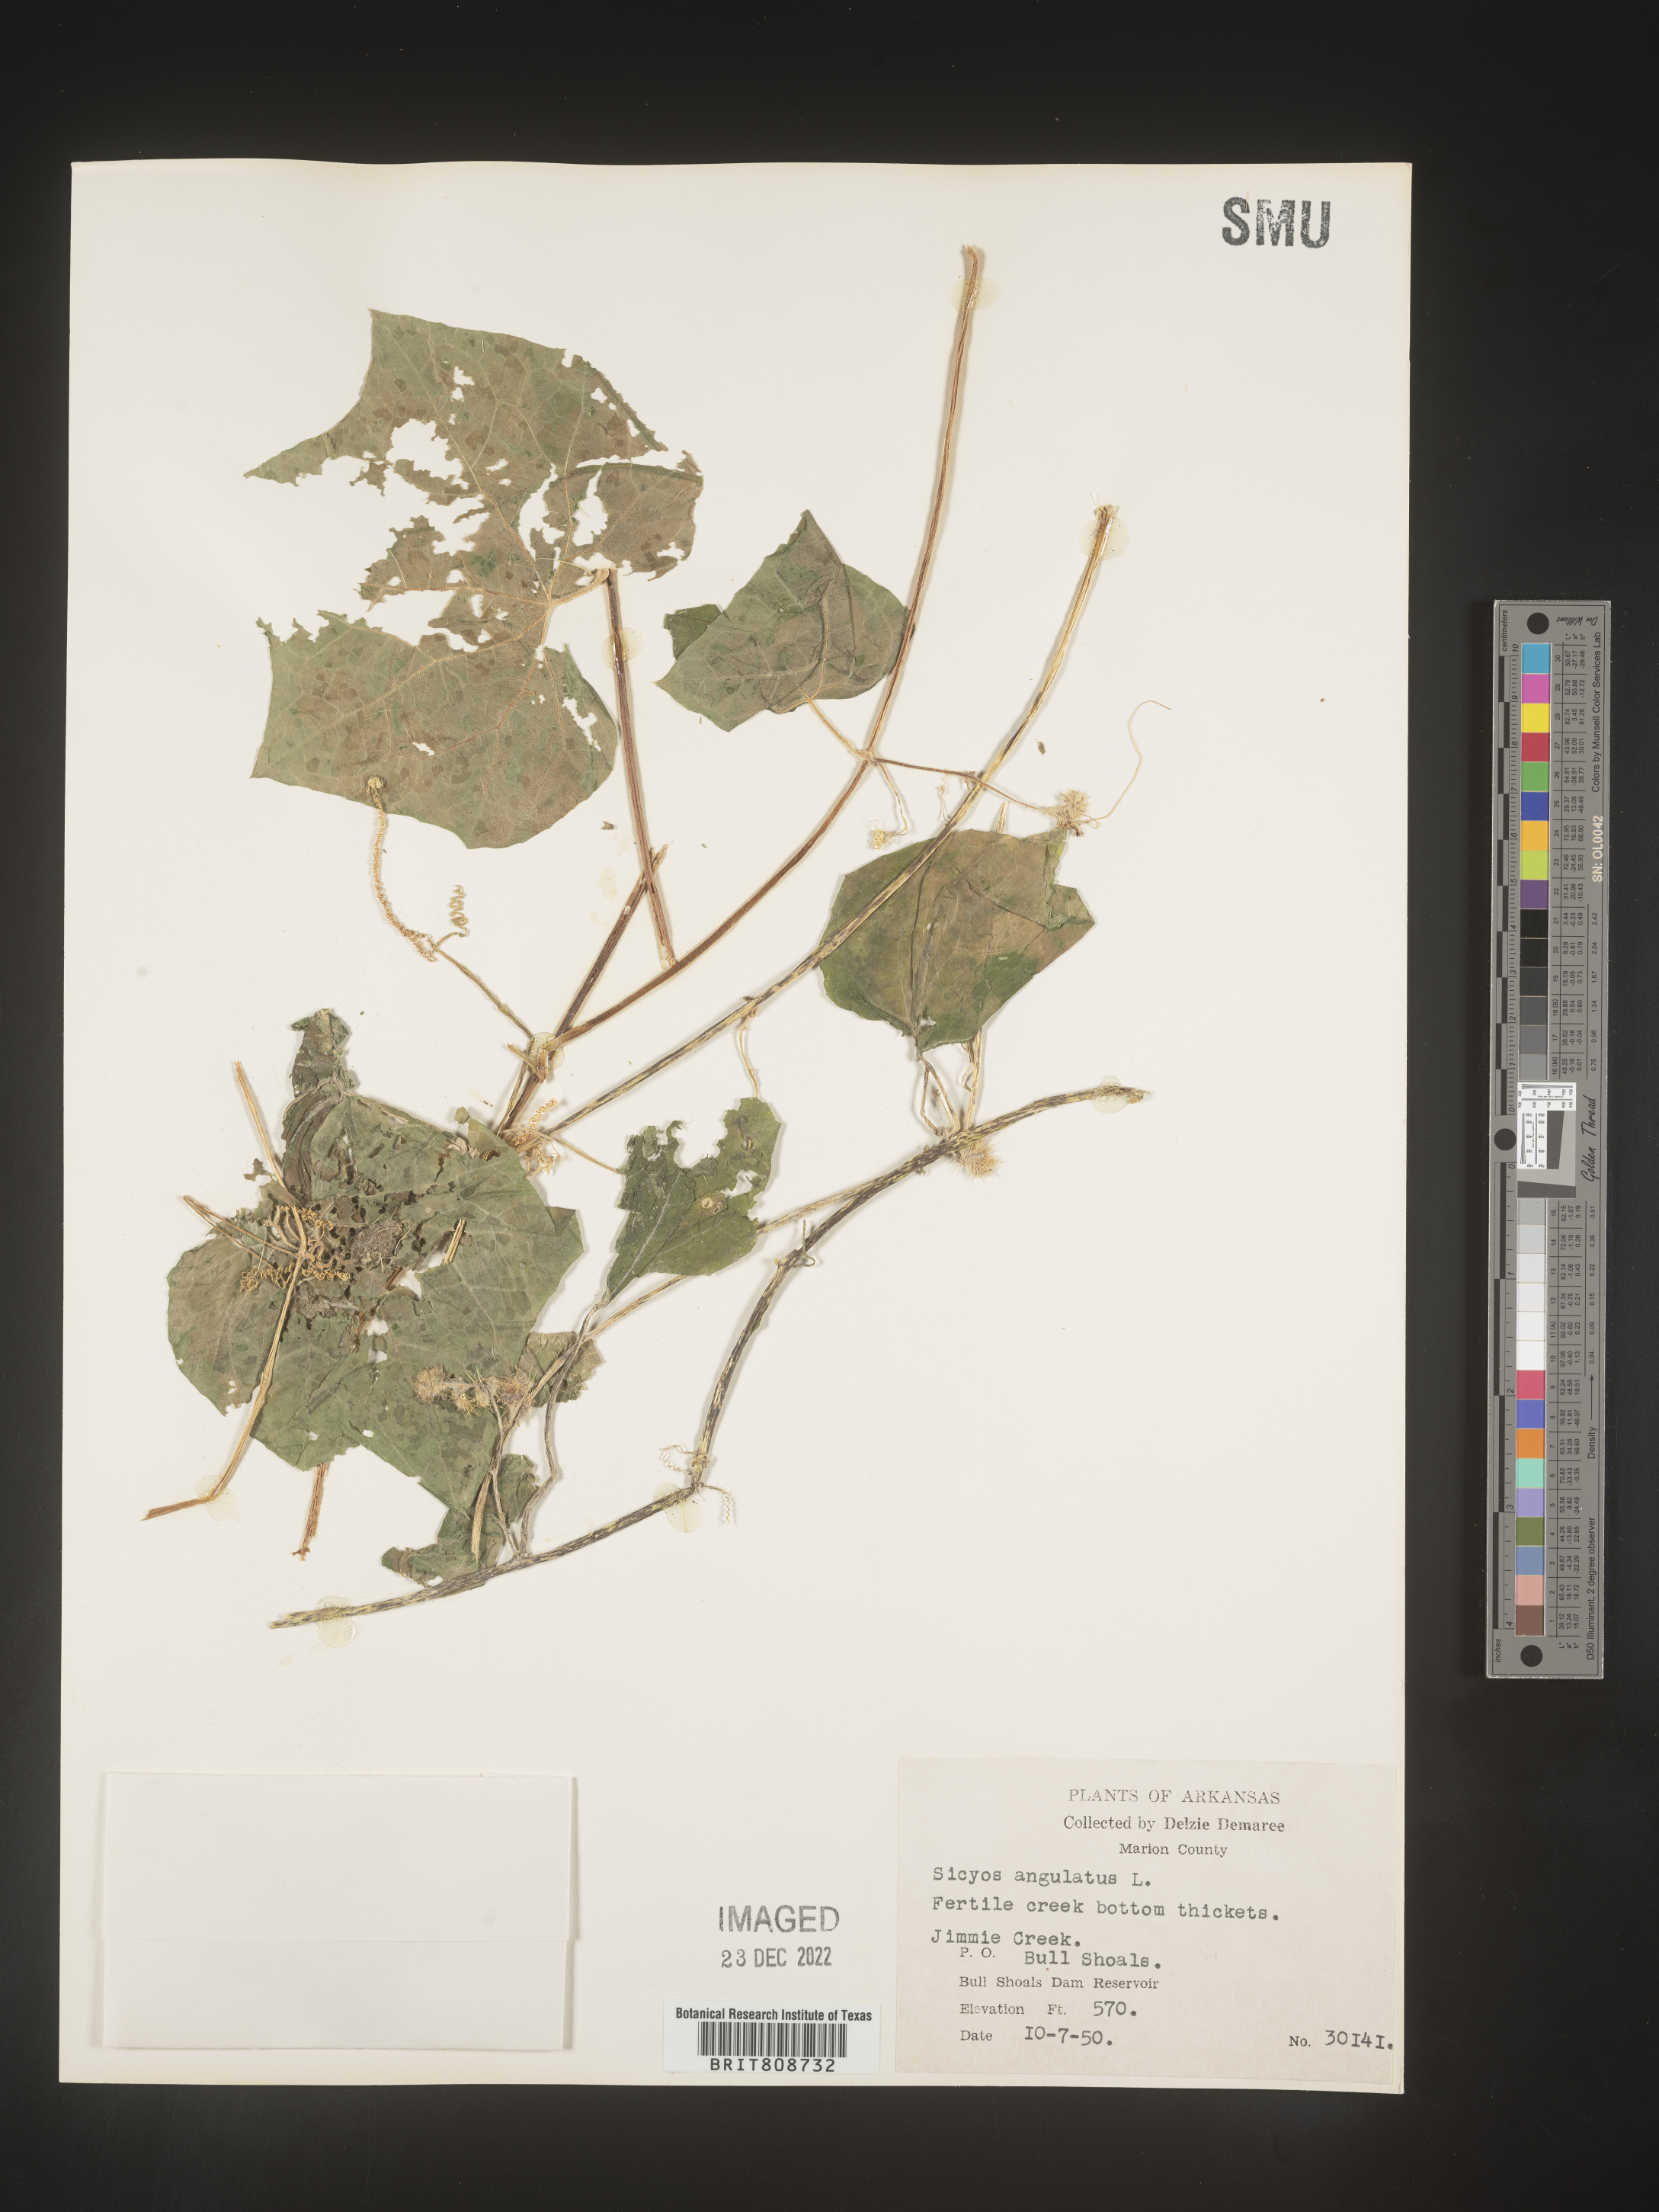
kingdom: Plantae
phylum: Tracheophyta
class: Magnoliopsida
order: Cucurbitales
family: Cucurbitaceae
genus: Sicyos
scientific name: Sicyos angulatus
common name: Angled burr cucumber
